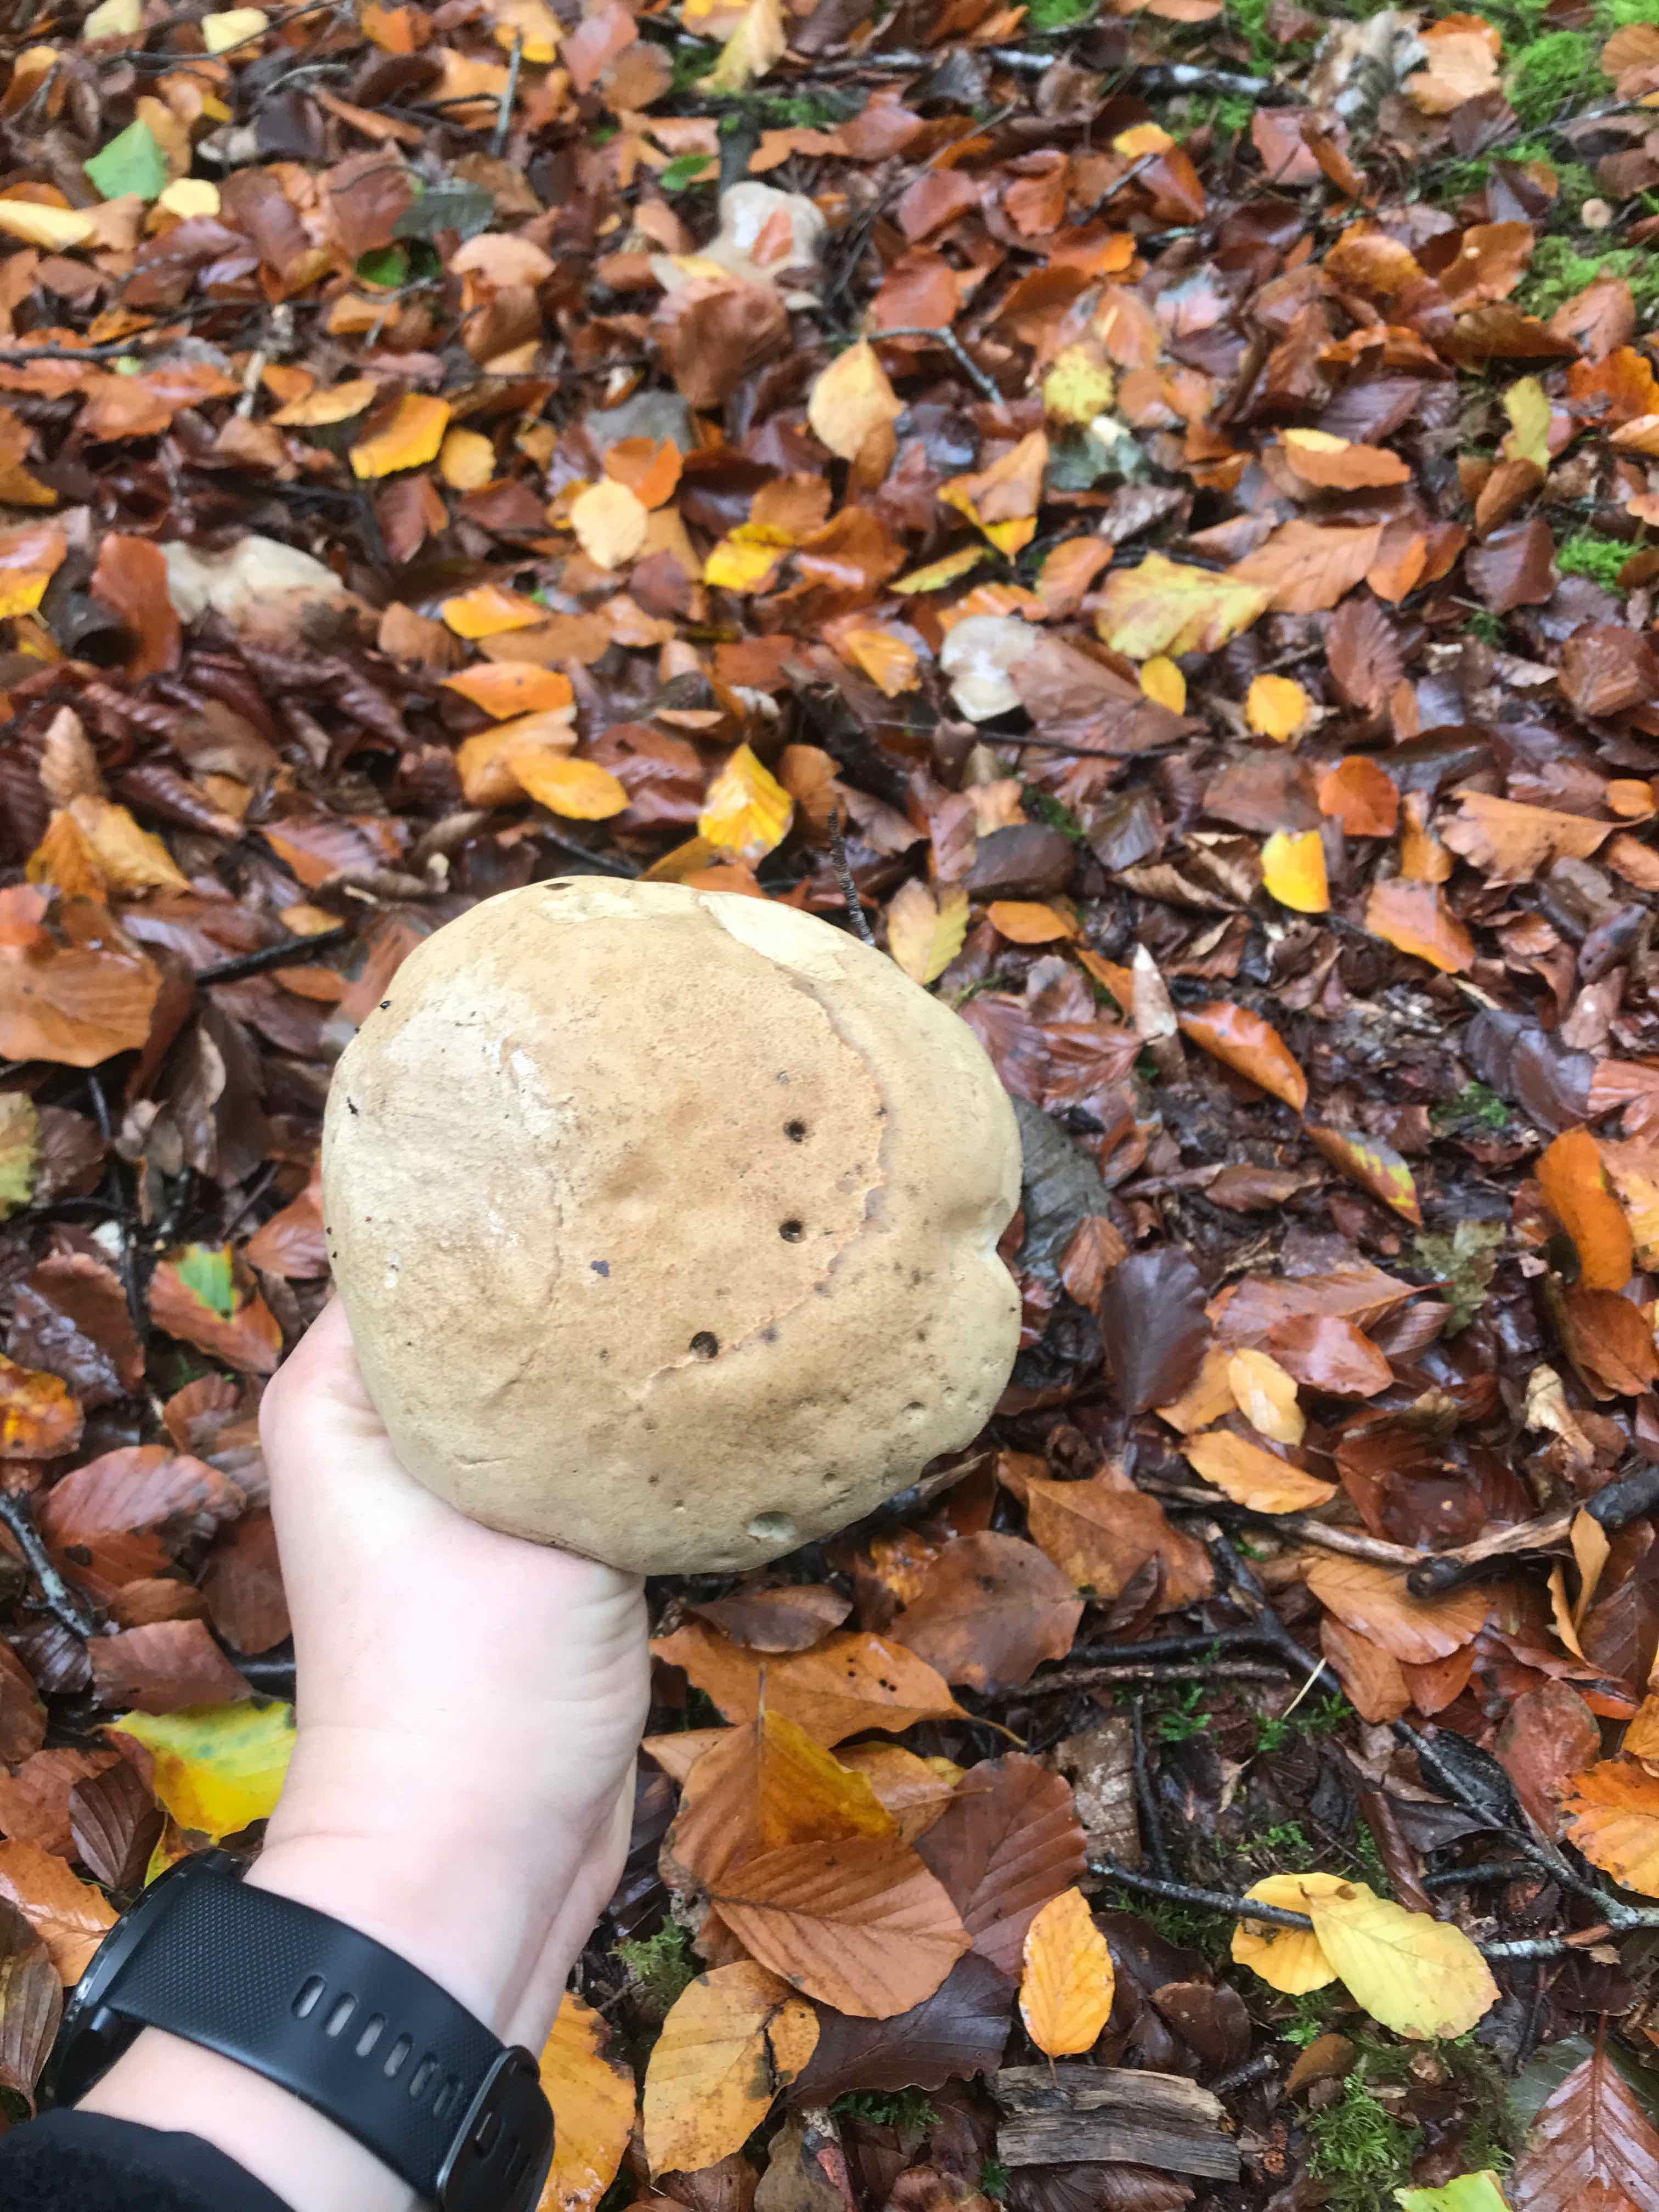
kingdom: Fungi
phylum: Basidiomycota
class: Agaricomycetes
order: Boletales
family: Boletaceae
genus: Caloboletus
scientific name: Caloboletus calopus
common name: skønfodet rørhat
